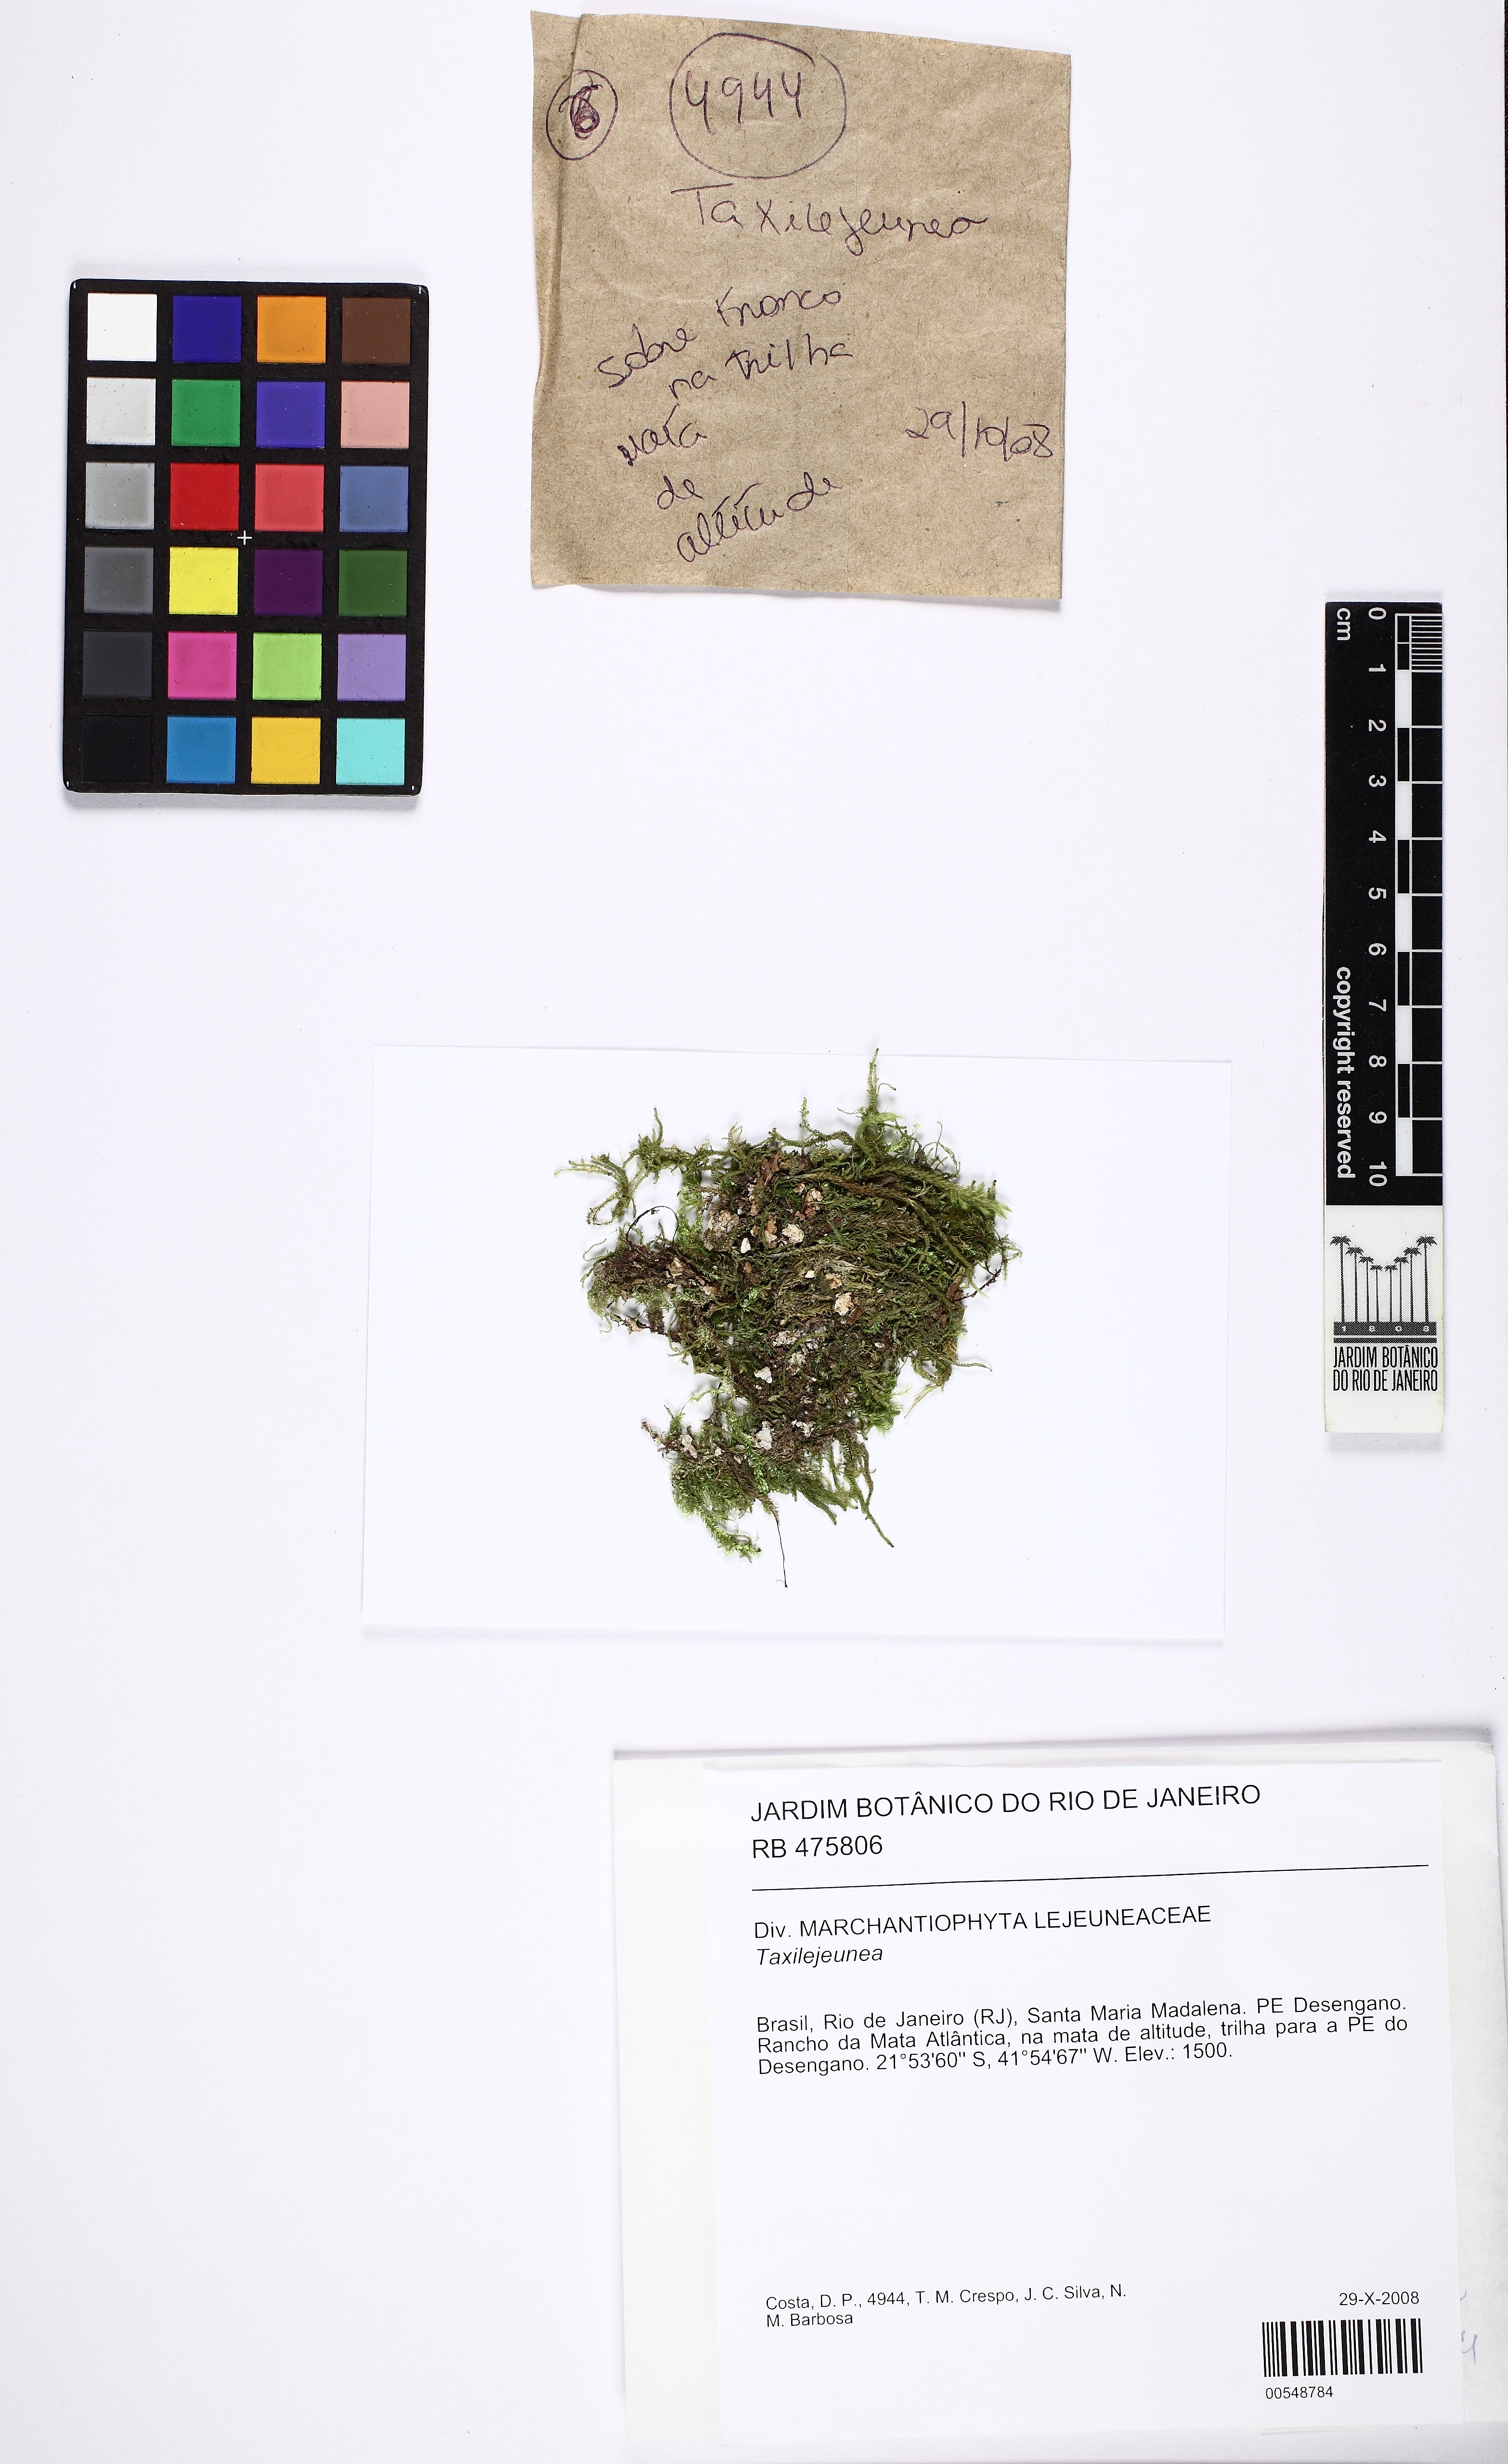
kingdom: Plantae
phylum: Marchantiophyta
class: Jungermanniopsida
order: Porellales
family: Lejeuneaceae
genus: Taxilejeunea
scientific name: Taxilejeunea
